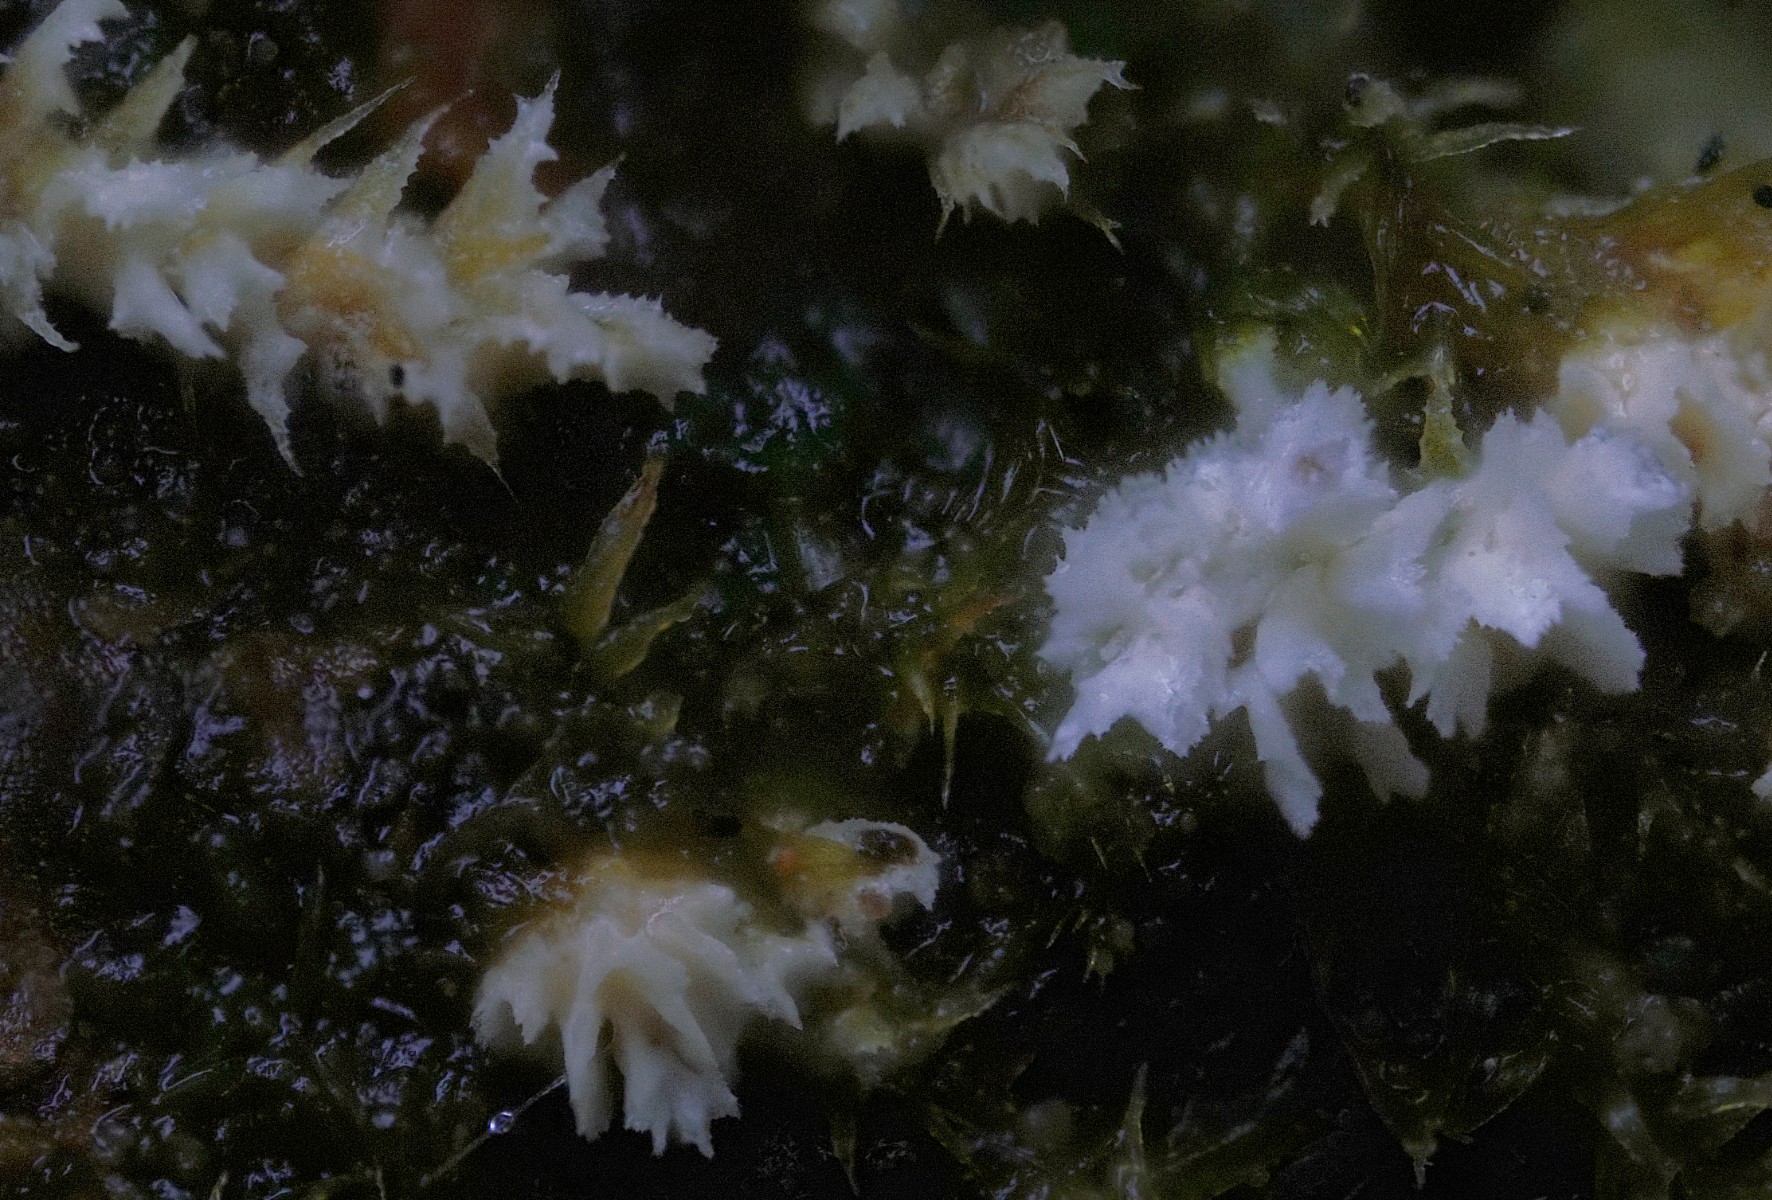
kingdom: Fungi
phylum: Basidiomycota
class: Agaricomycetes
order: Corticiales
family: Corticiaceae
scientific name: Corticiaceae
